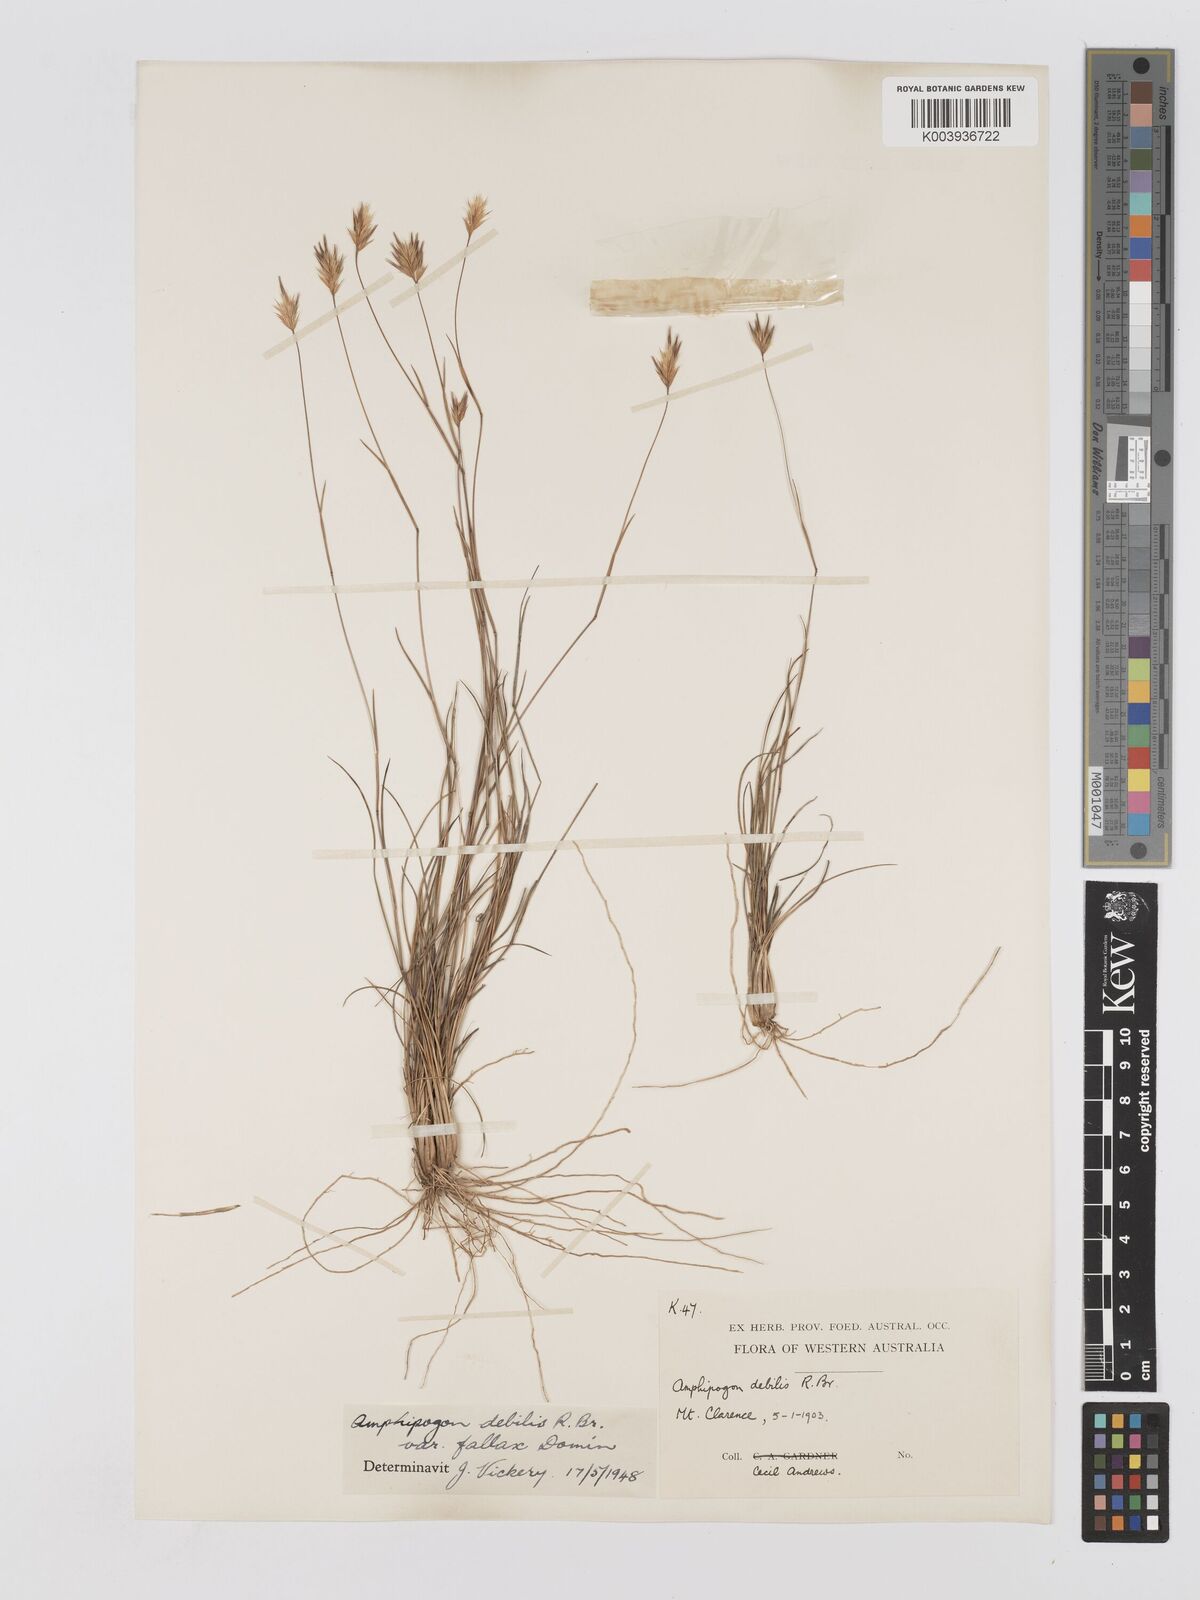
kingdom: Plantae
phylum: Tracheophyta
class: Liliopsida
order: Poales
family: Poaceae
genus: Amphipogon
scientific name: Amphipogon debilis
